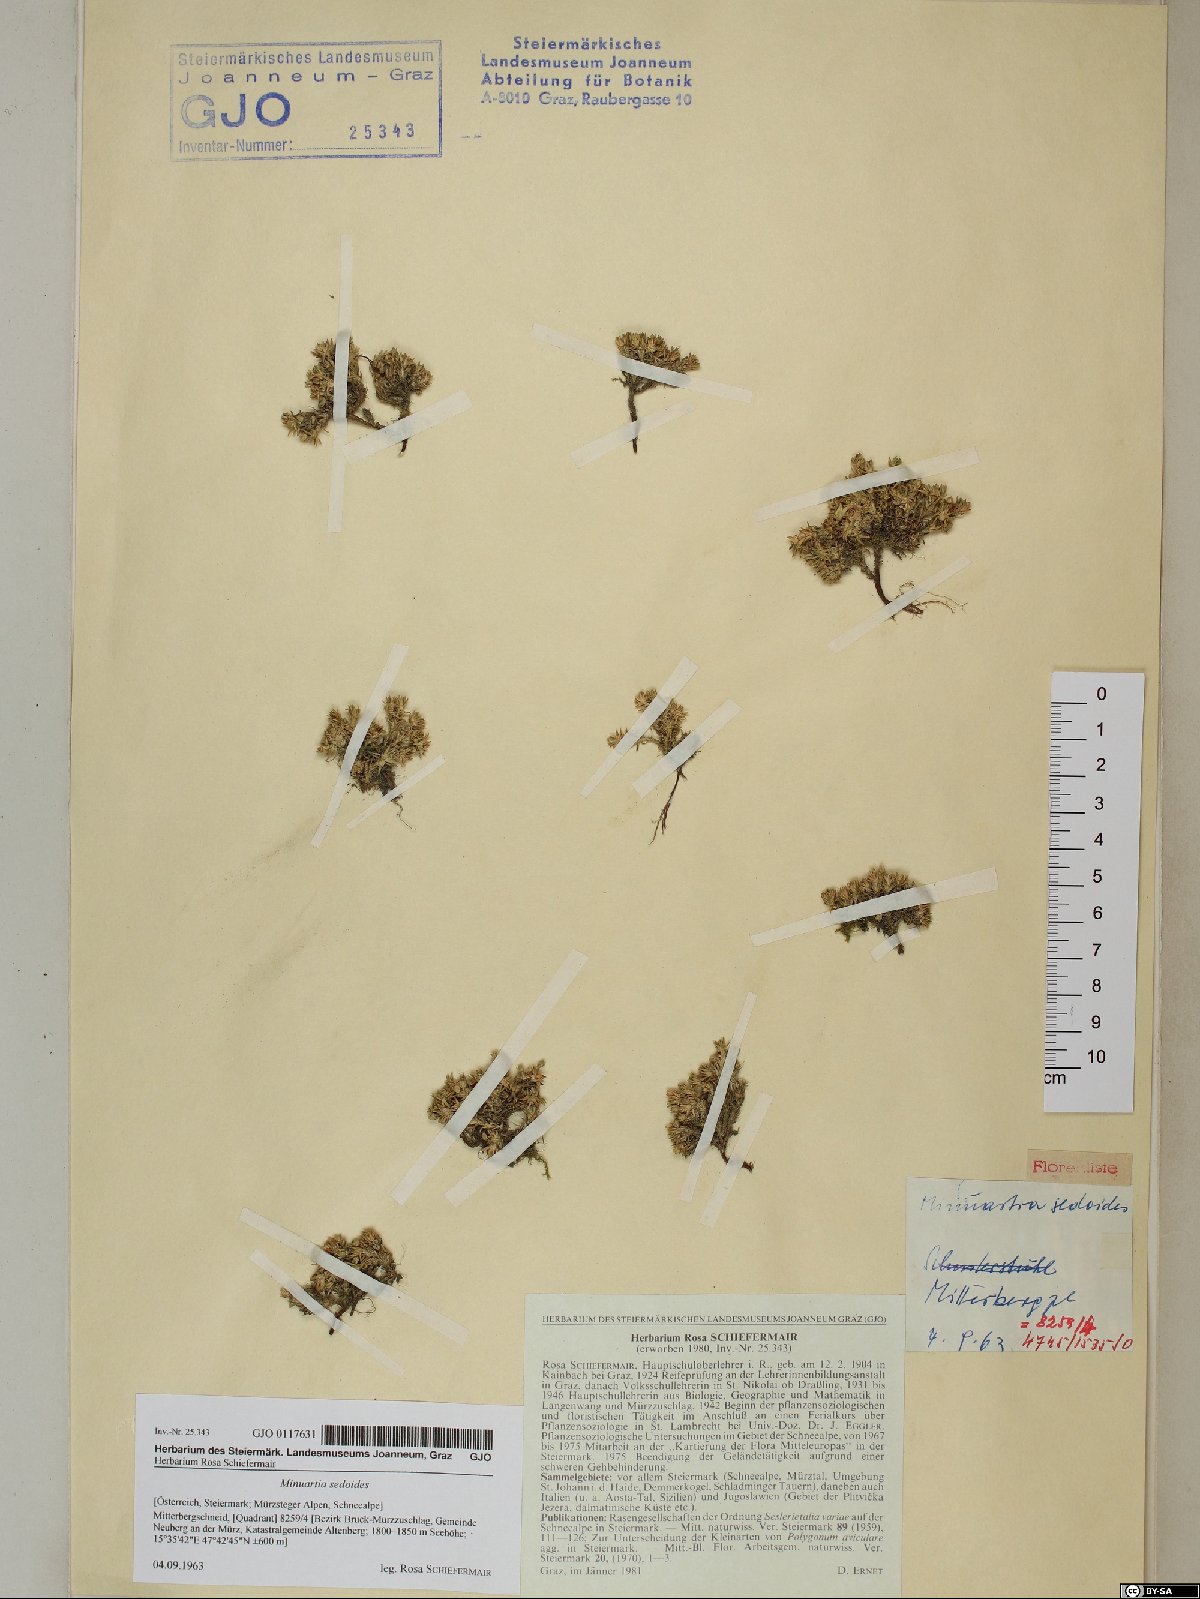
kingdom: Plantae
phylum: Tracheophyta
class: Magnoliopsida
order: Caryophyllales
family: Caryophyllaceae
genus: Cherleria
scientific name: Cherleria sedoides
